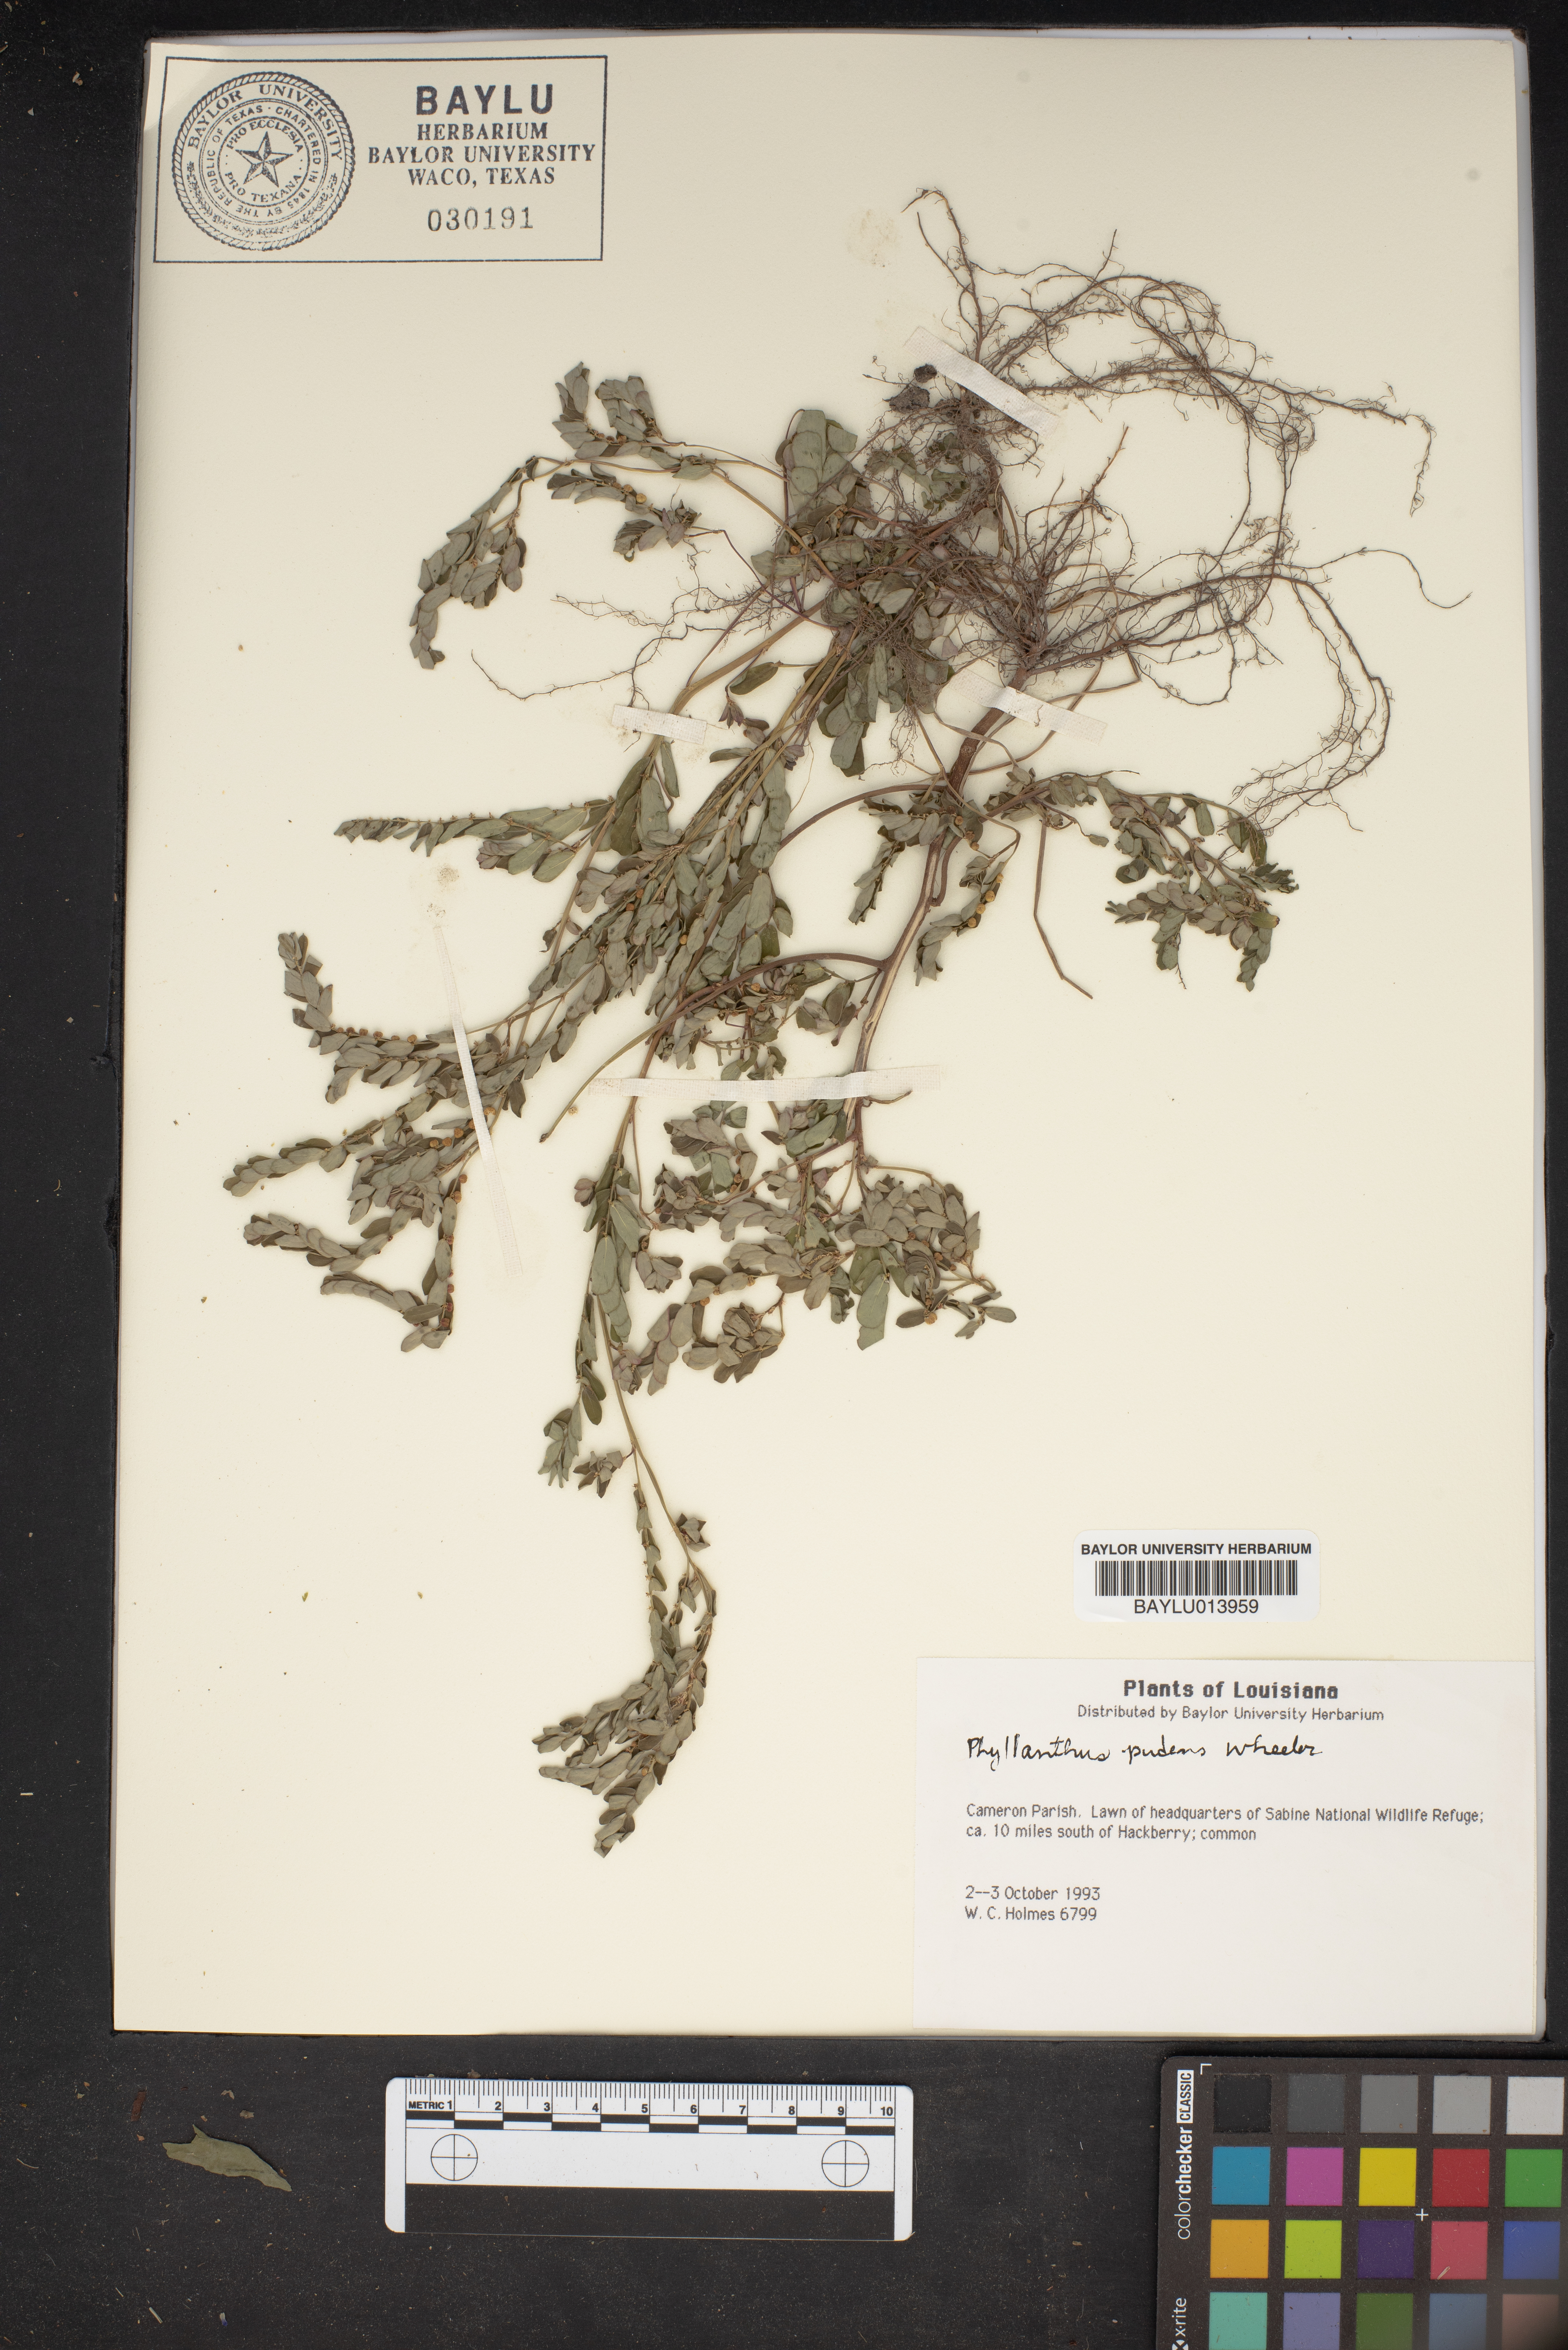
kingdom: Plantae
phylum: Tracheophyta
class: Magnoliopsida
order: Malpighiales
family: Phyllanthaceae
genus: Phyllanthus
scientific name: Phyllanthus evanescens
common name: Birdseed leaf-flower
